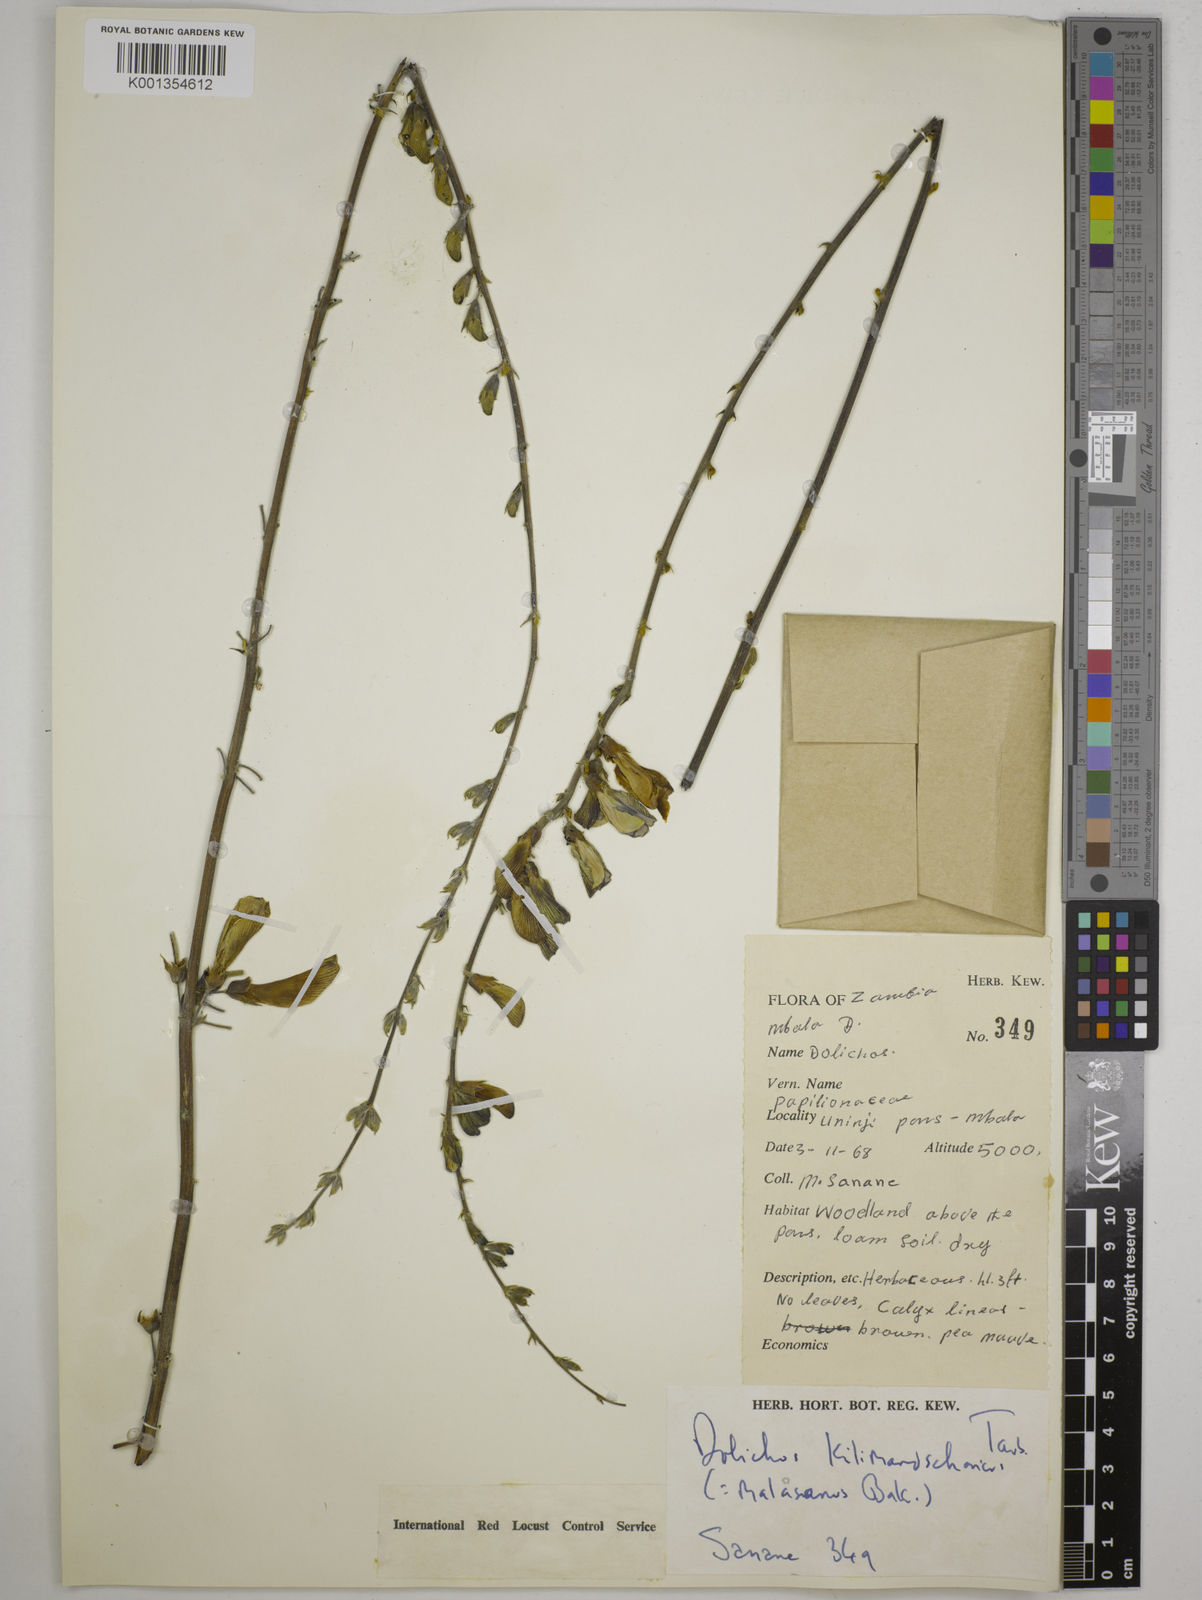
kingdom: Plantae
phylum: Tracheophyta
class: Magnoliopsida
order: Fabales
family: Fabaceae
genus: Dolichos
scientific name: Dolichos kilimandscharicus
